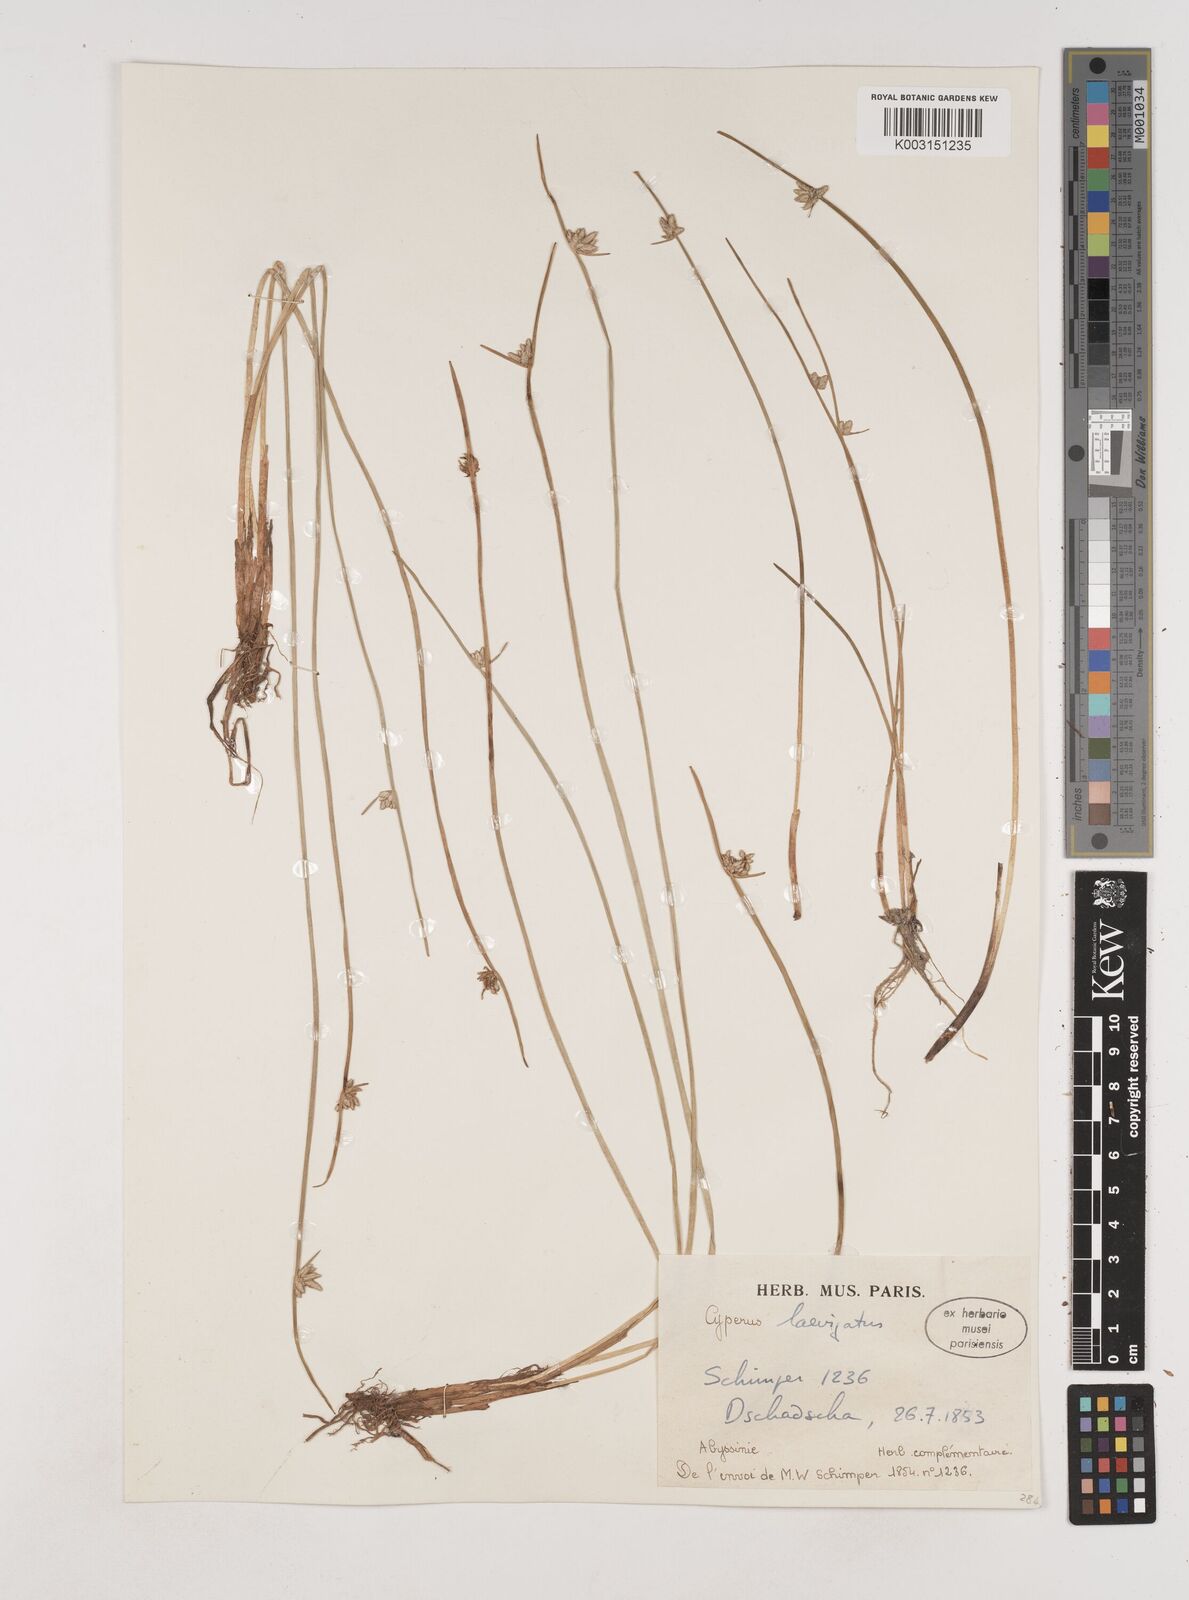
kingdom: Plantae
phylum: Tracheophyta
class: Liliopsida
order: Poales
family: Cyperaceae
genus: Cyperus
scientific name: Cyperus laevigatus
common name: Smooth flat sedge
